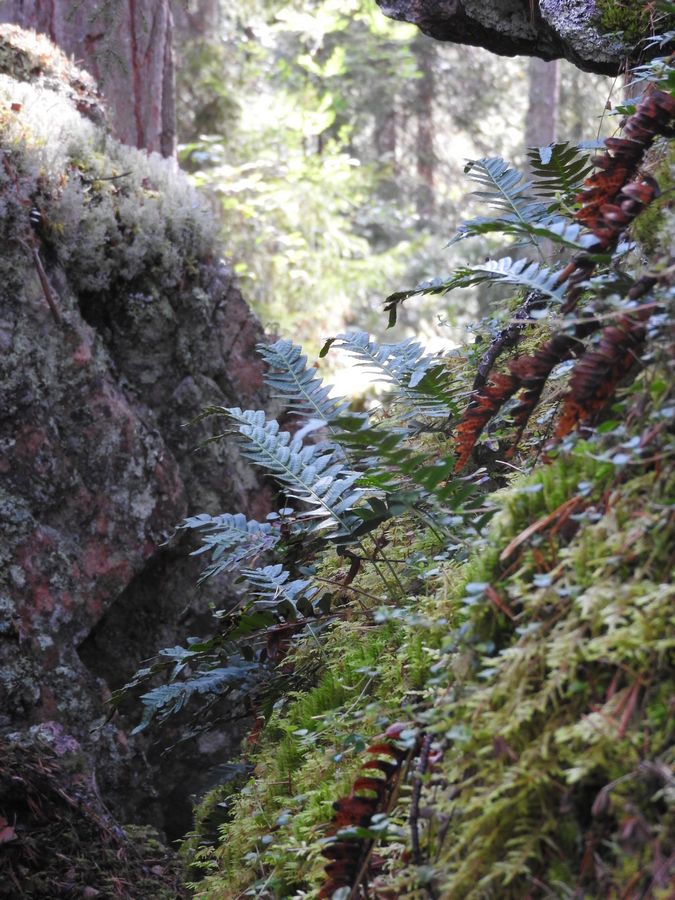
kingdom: Plantae
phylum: Tracheophyta
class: Polypodiopsida
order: Polypodiales
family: Polypodiaceae
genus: Polypodium
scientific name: Polypodium vulgare
